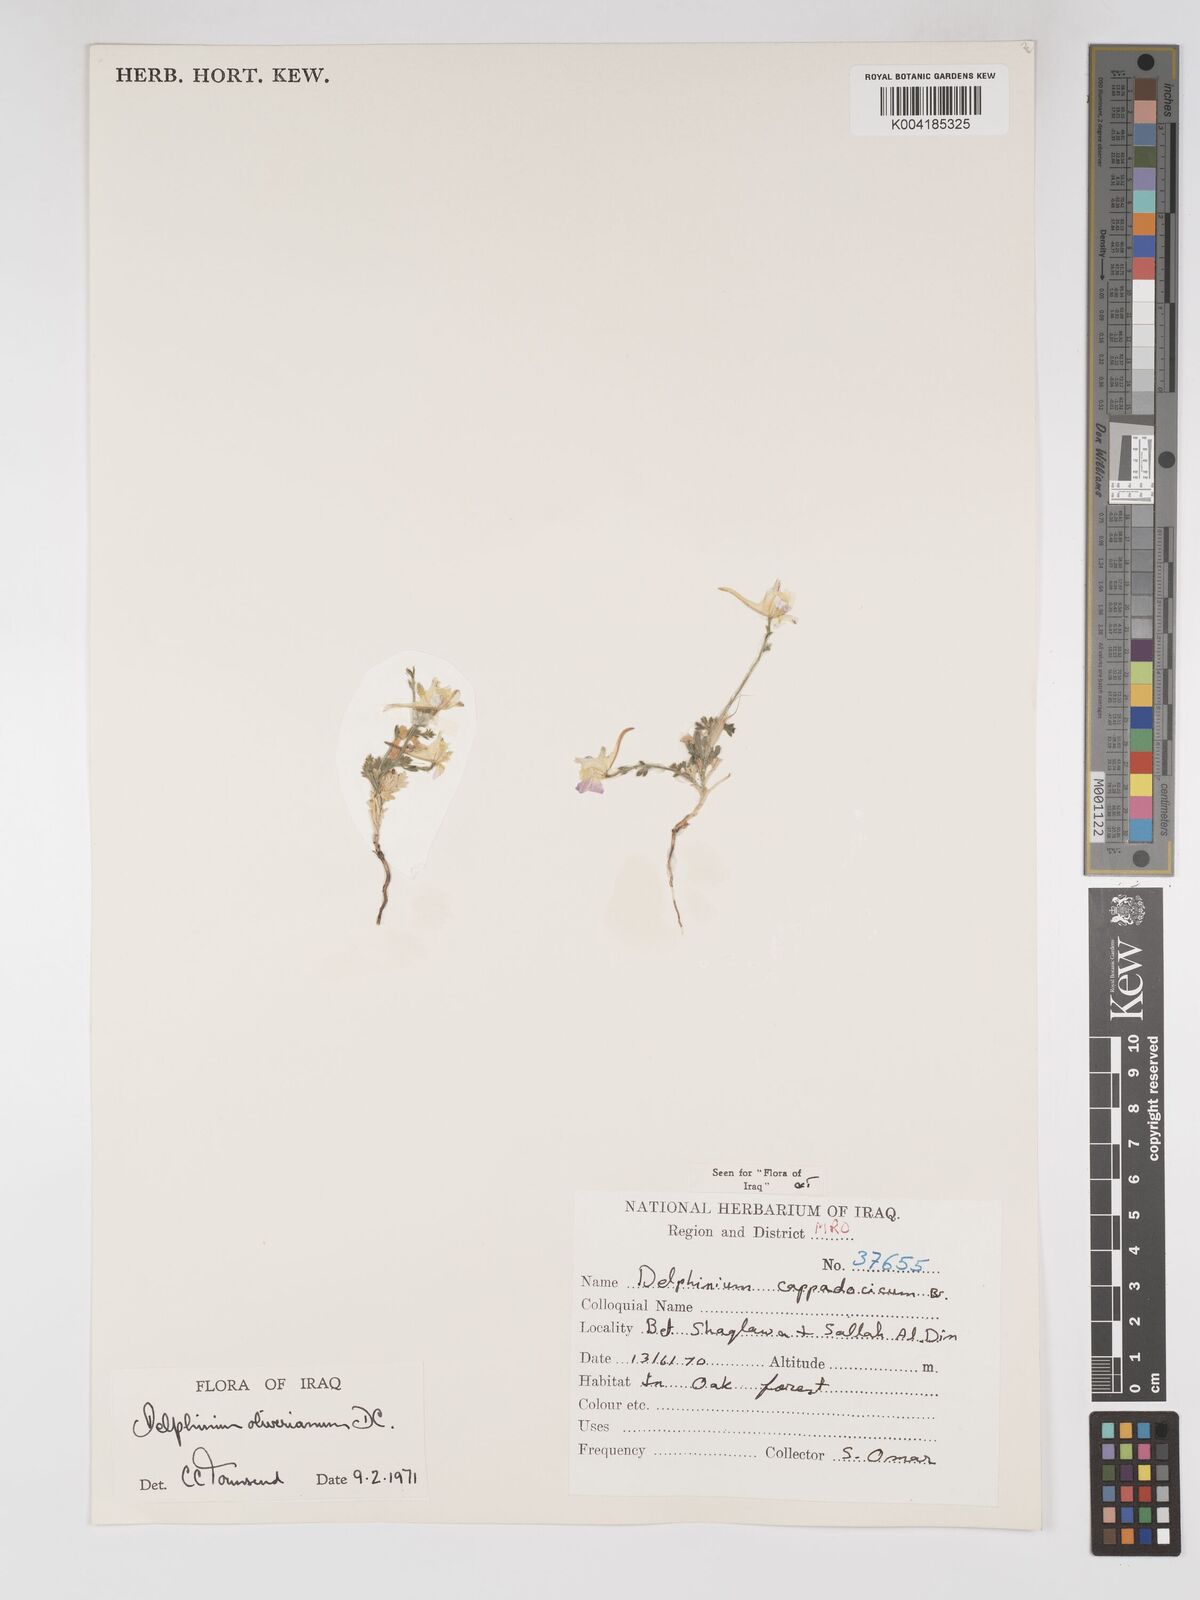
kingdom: Plantae
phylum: Tracheophyta
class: Magnoliopsida
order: Ranunculales
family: Ranunculaceae
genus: Delphinium
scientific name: Delphinium oliverianum
